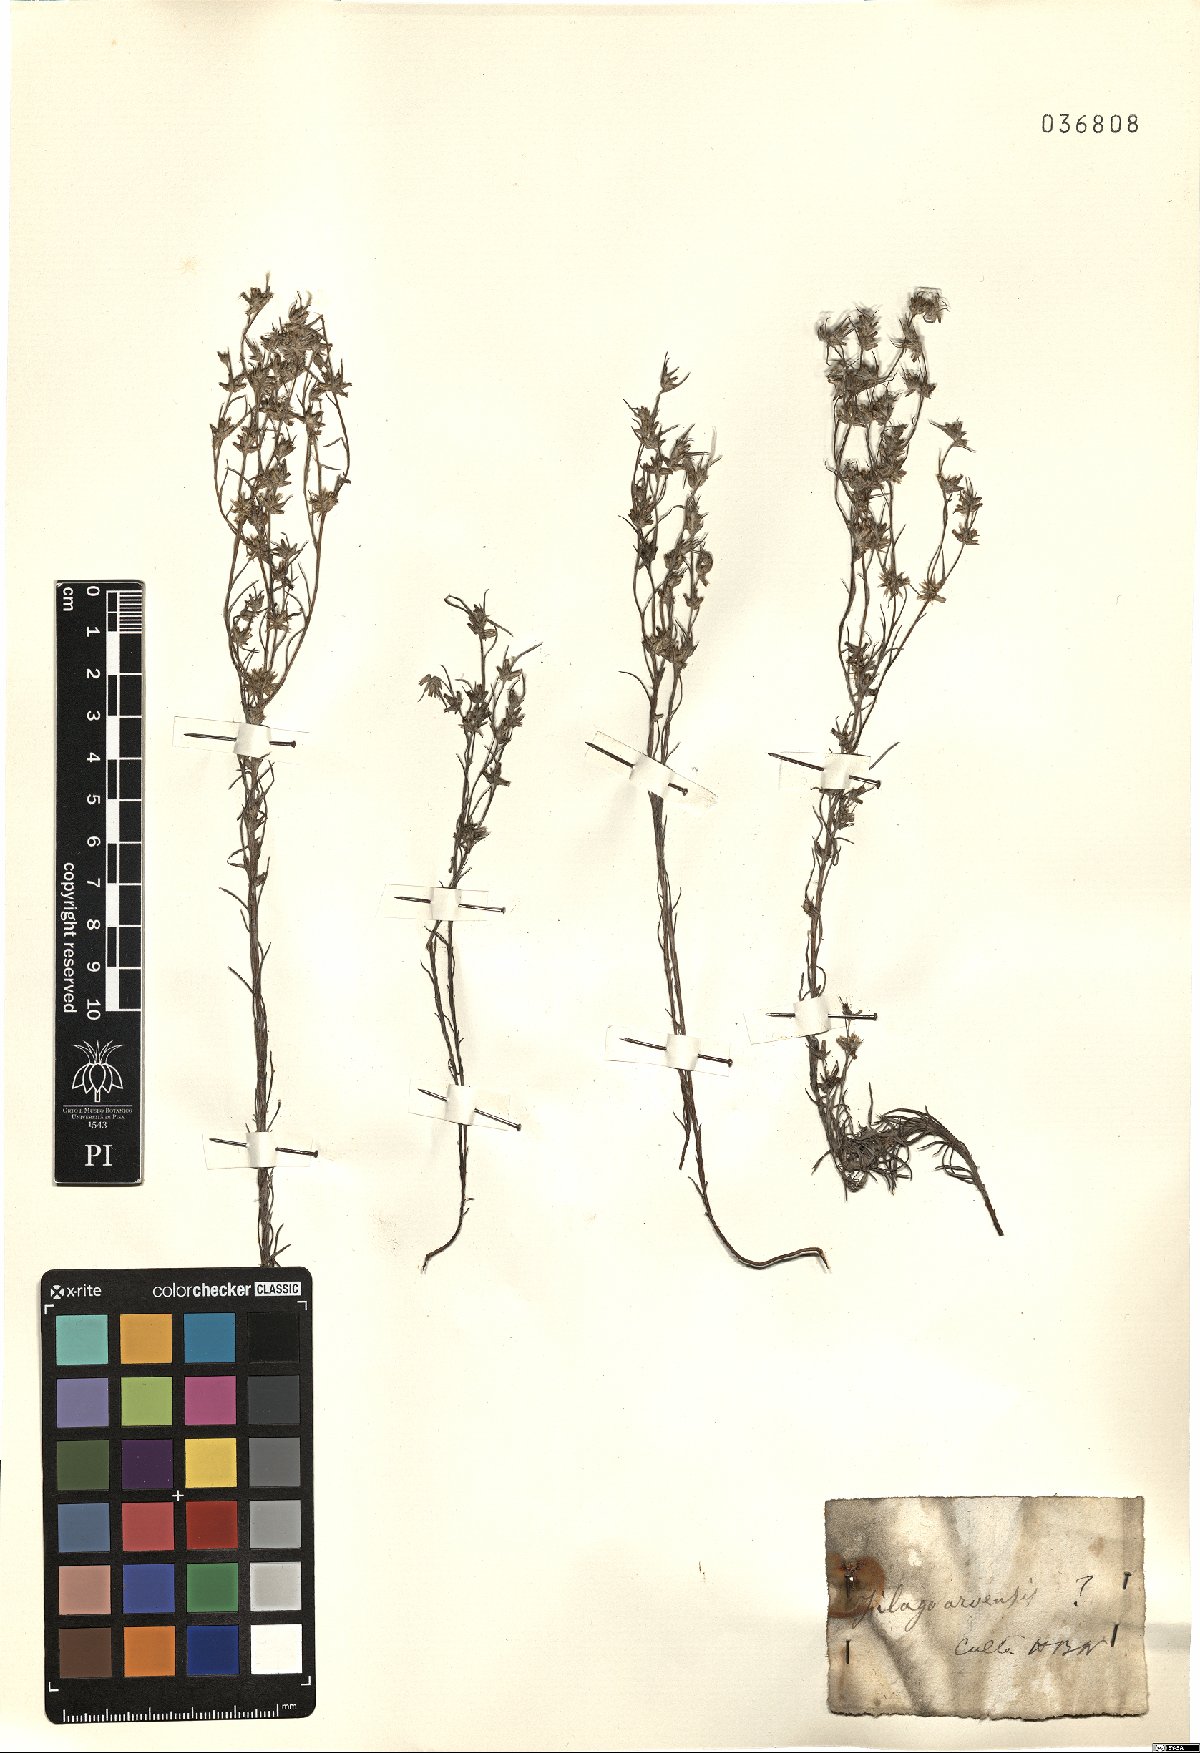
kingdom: Plantae
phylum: Tracheophyta
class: Magnoliopsida
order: Asterales
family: Asteraceae
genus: Filago
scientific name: Filago arvensis
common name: Field cudweed
